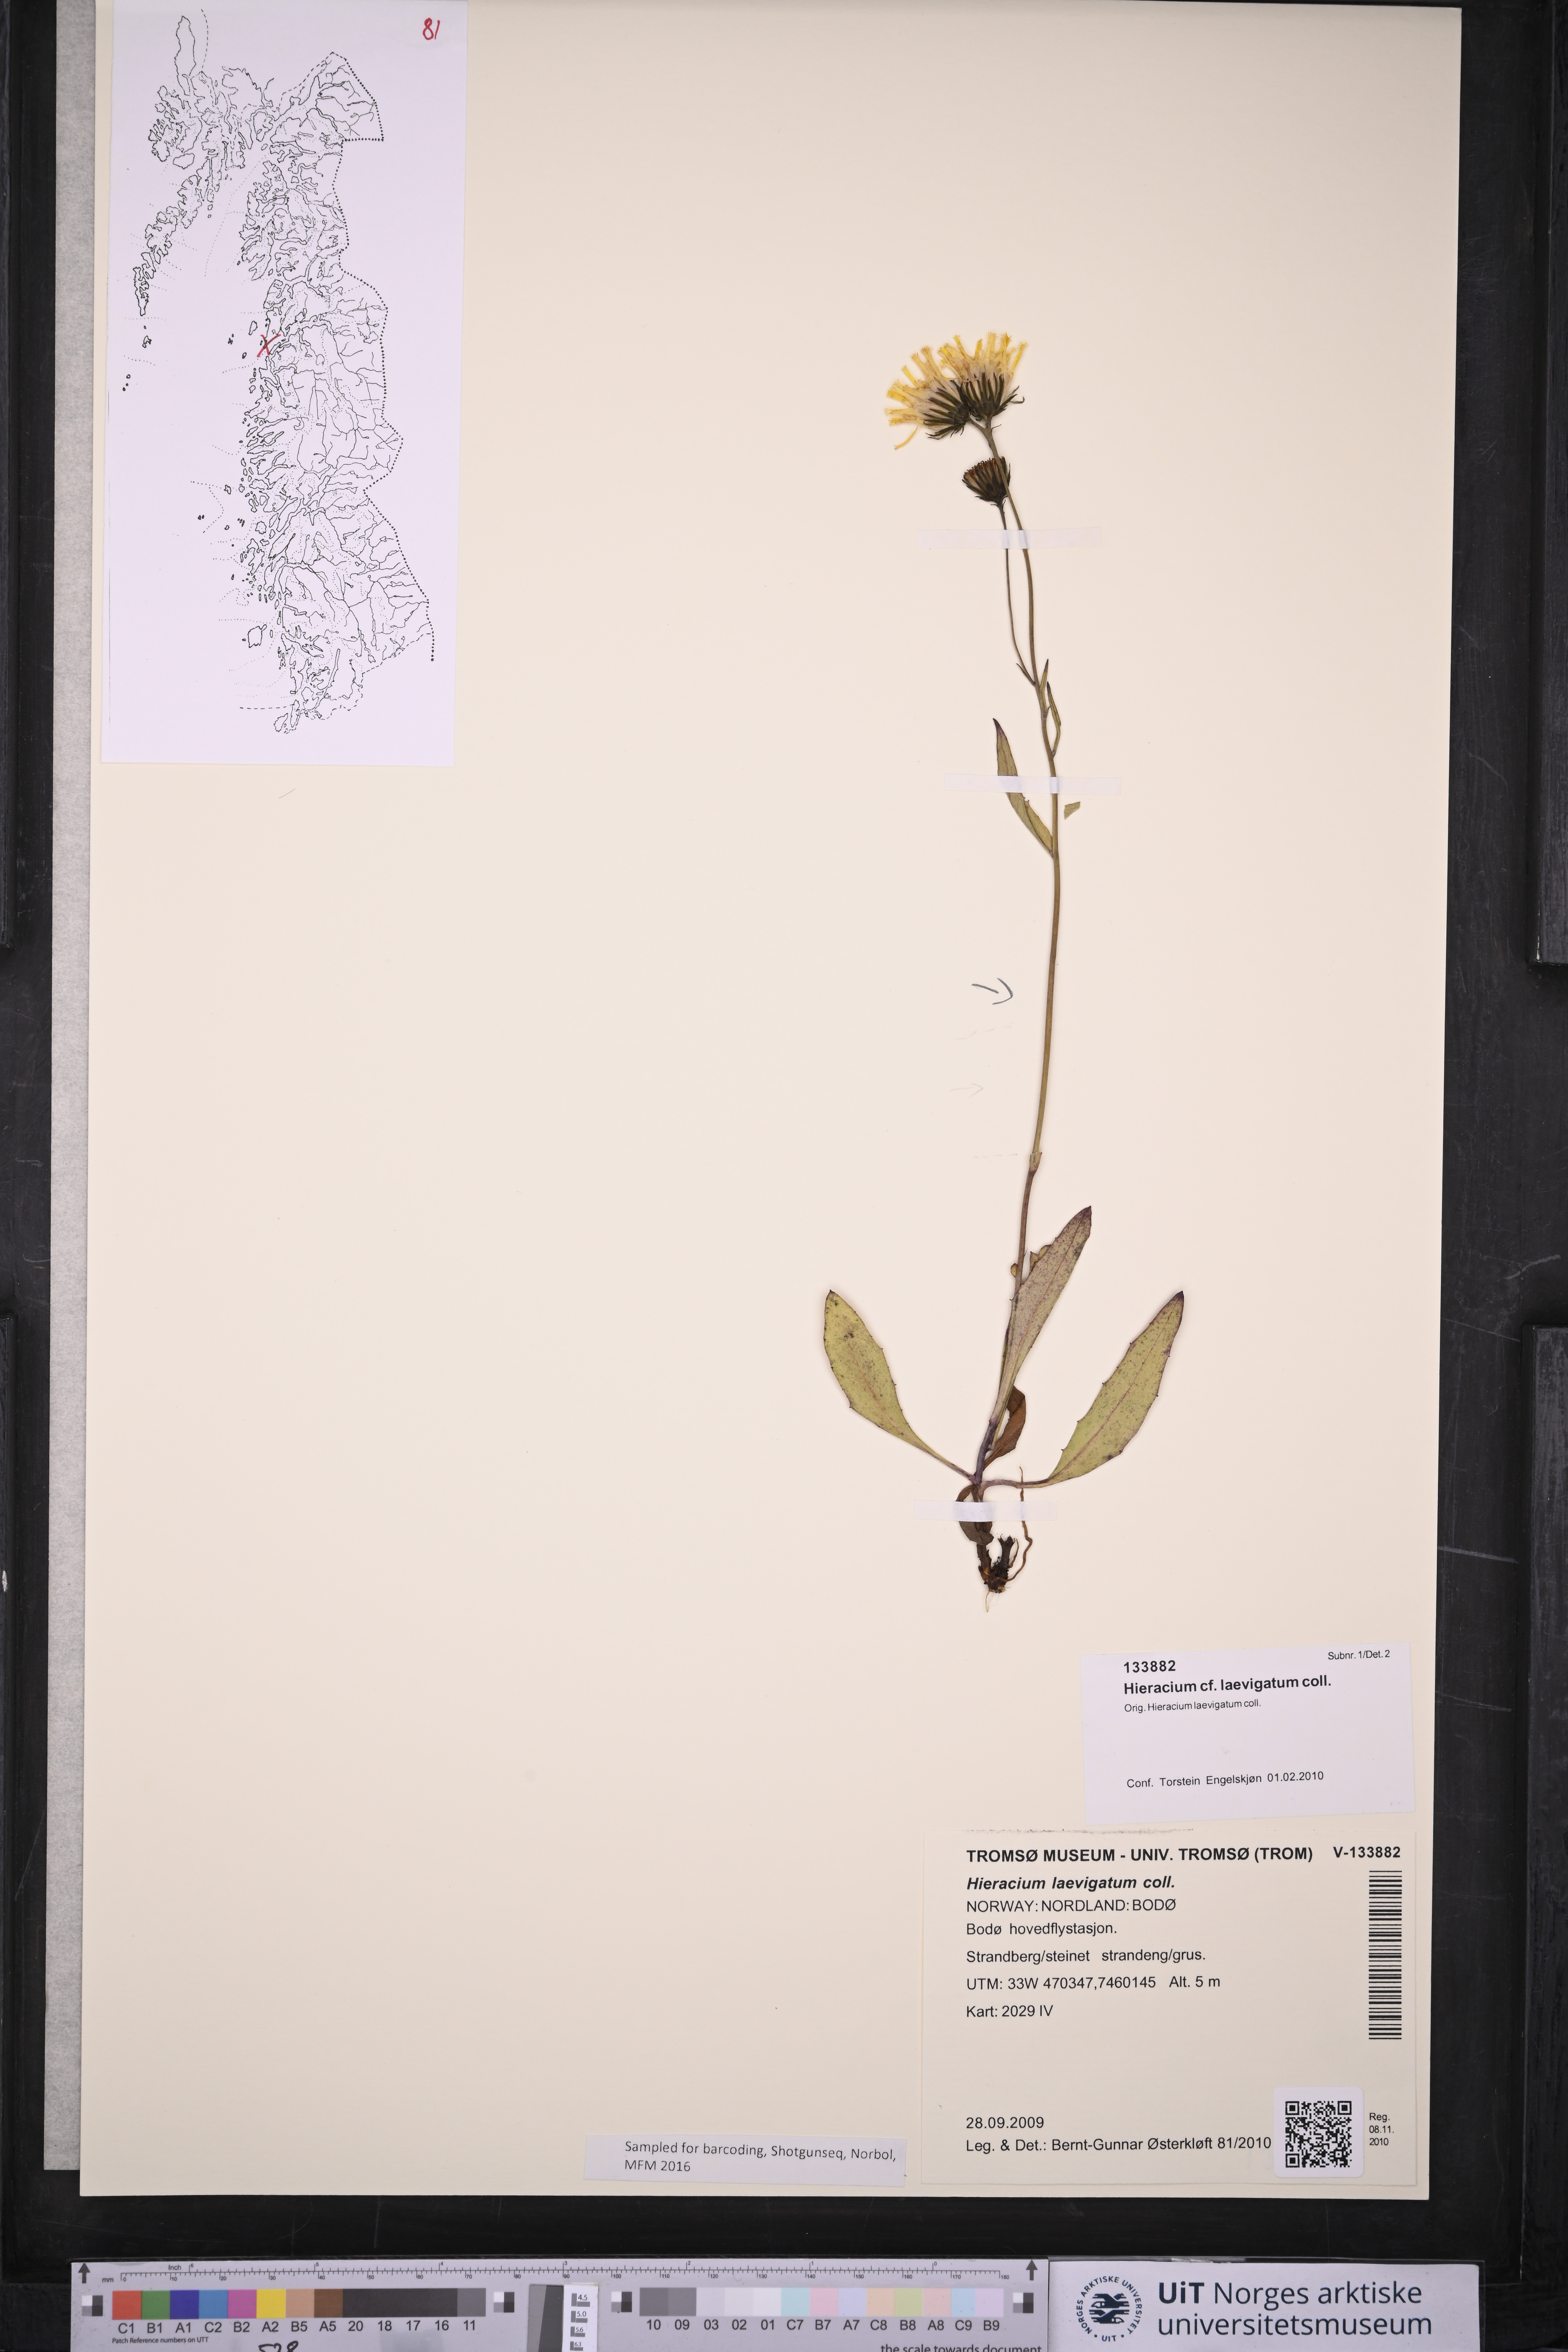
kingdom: Plantae
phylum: Tracheophyta
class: Magnoliopsida
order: Asterales
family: Asteraceae
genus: Hieracium
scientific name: Hieracium laevigatum
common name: Smooth hawkweed
